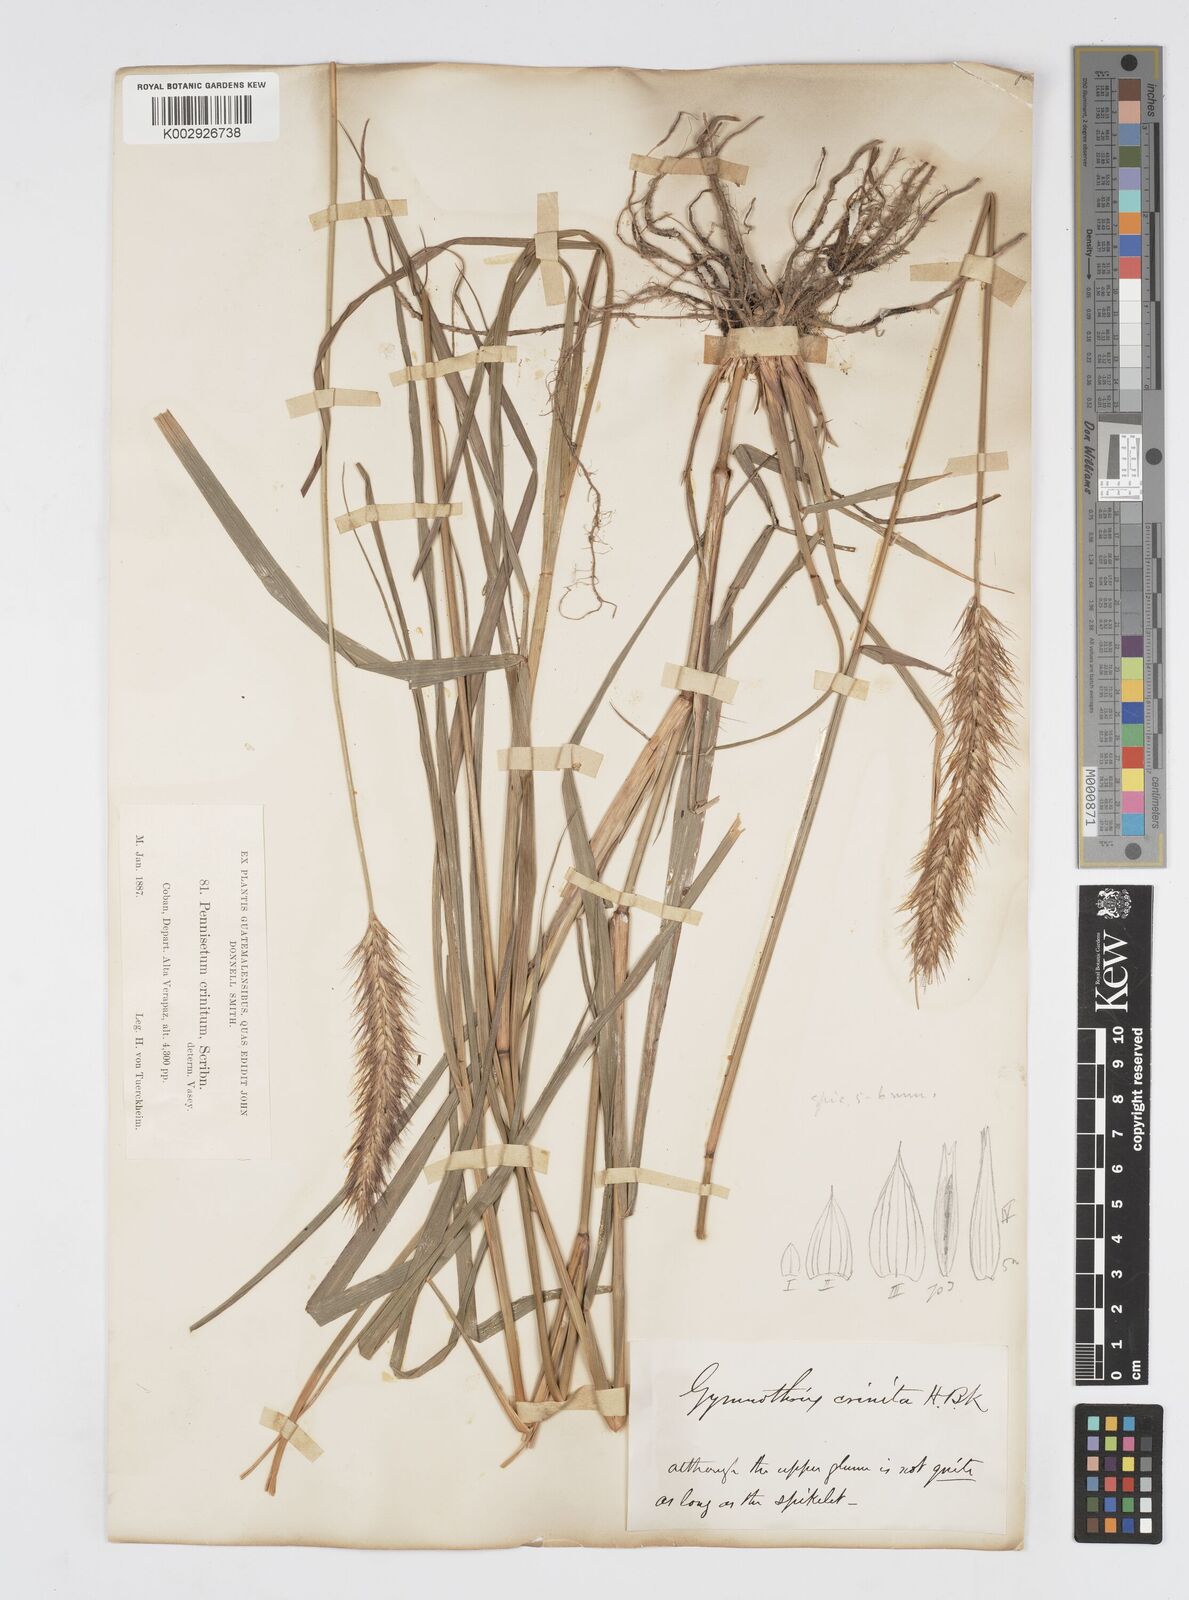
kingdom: Plantae
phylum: Tracheophyta
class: Liliopsida
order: Poales
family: Poaceae
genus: Cenchrus
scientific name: Cenchrus complanatus
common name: Nicaraguan fountaingrass
